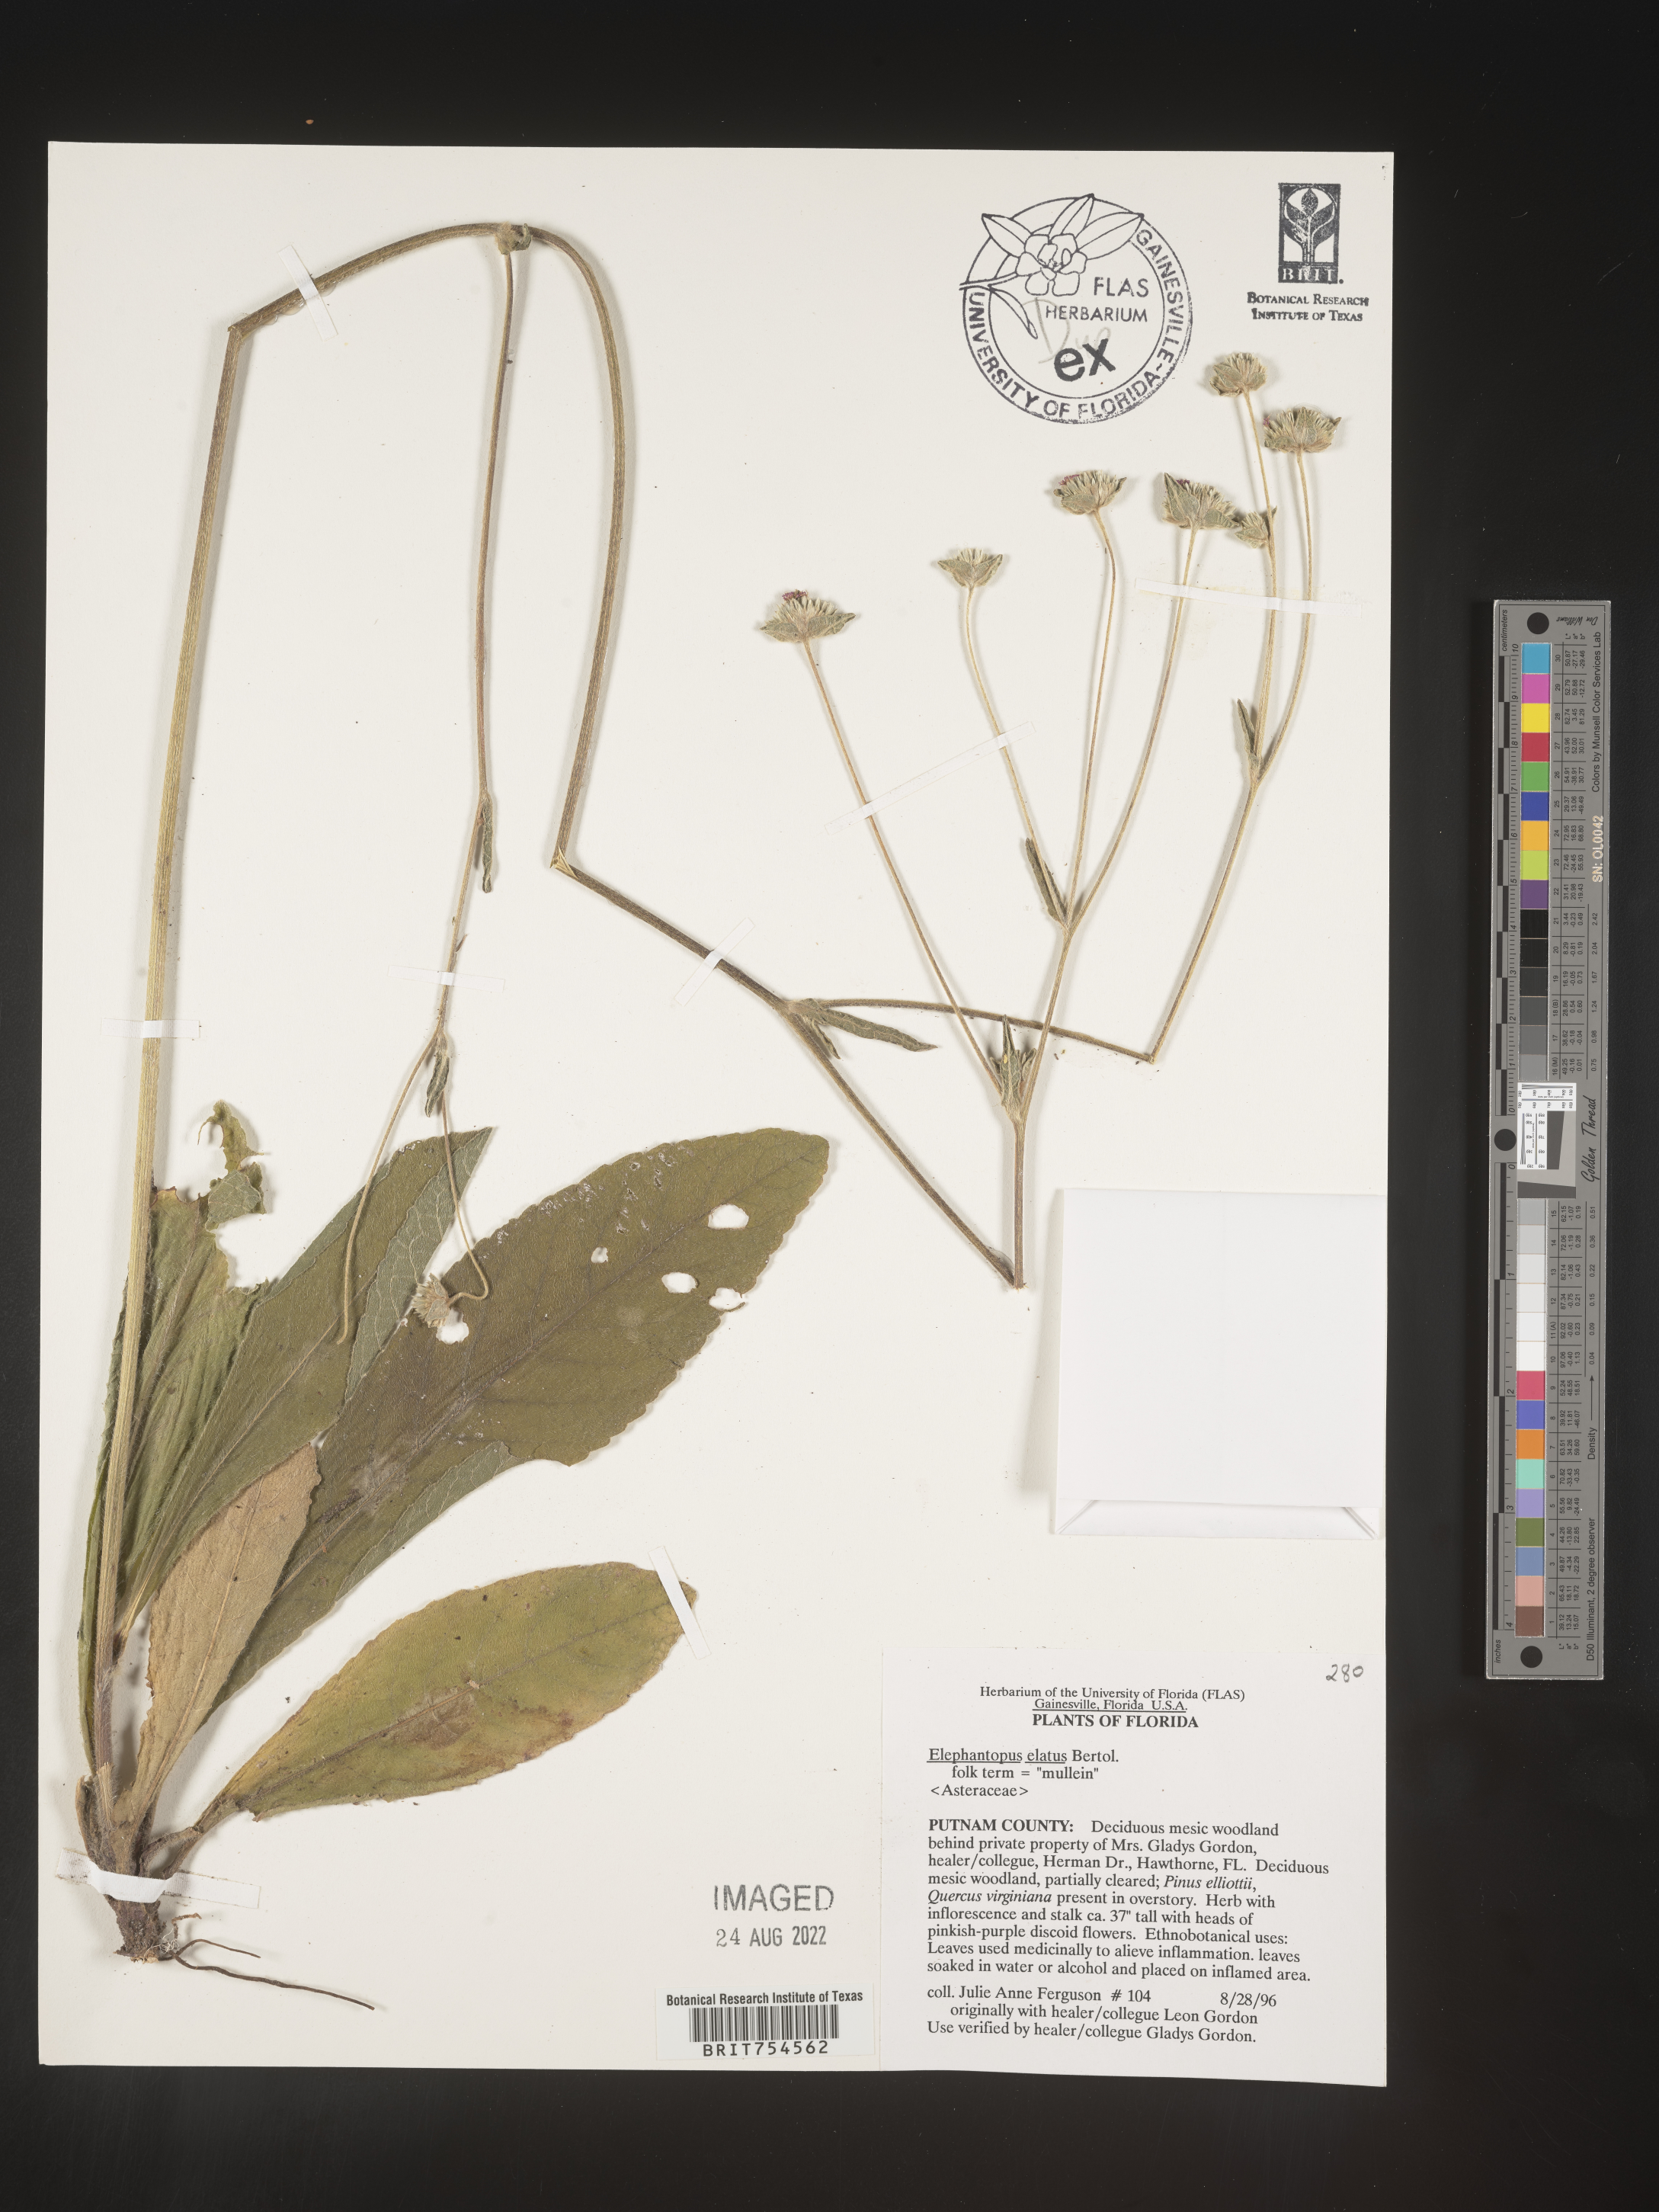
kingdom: Plantae
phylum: Tracheophyta
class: Magnoliopsida
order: Asterales
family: Asteraceae
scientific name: Asteraceae
